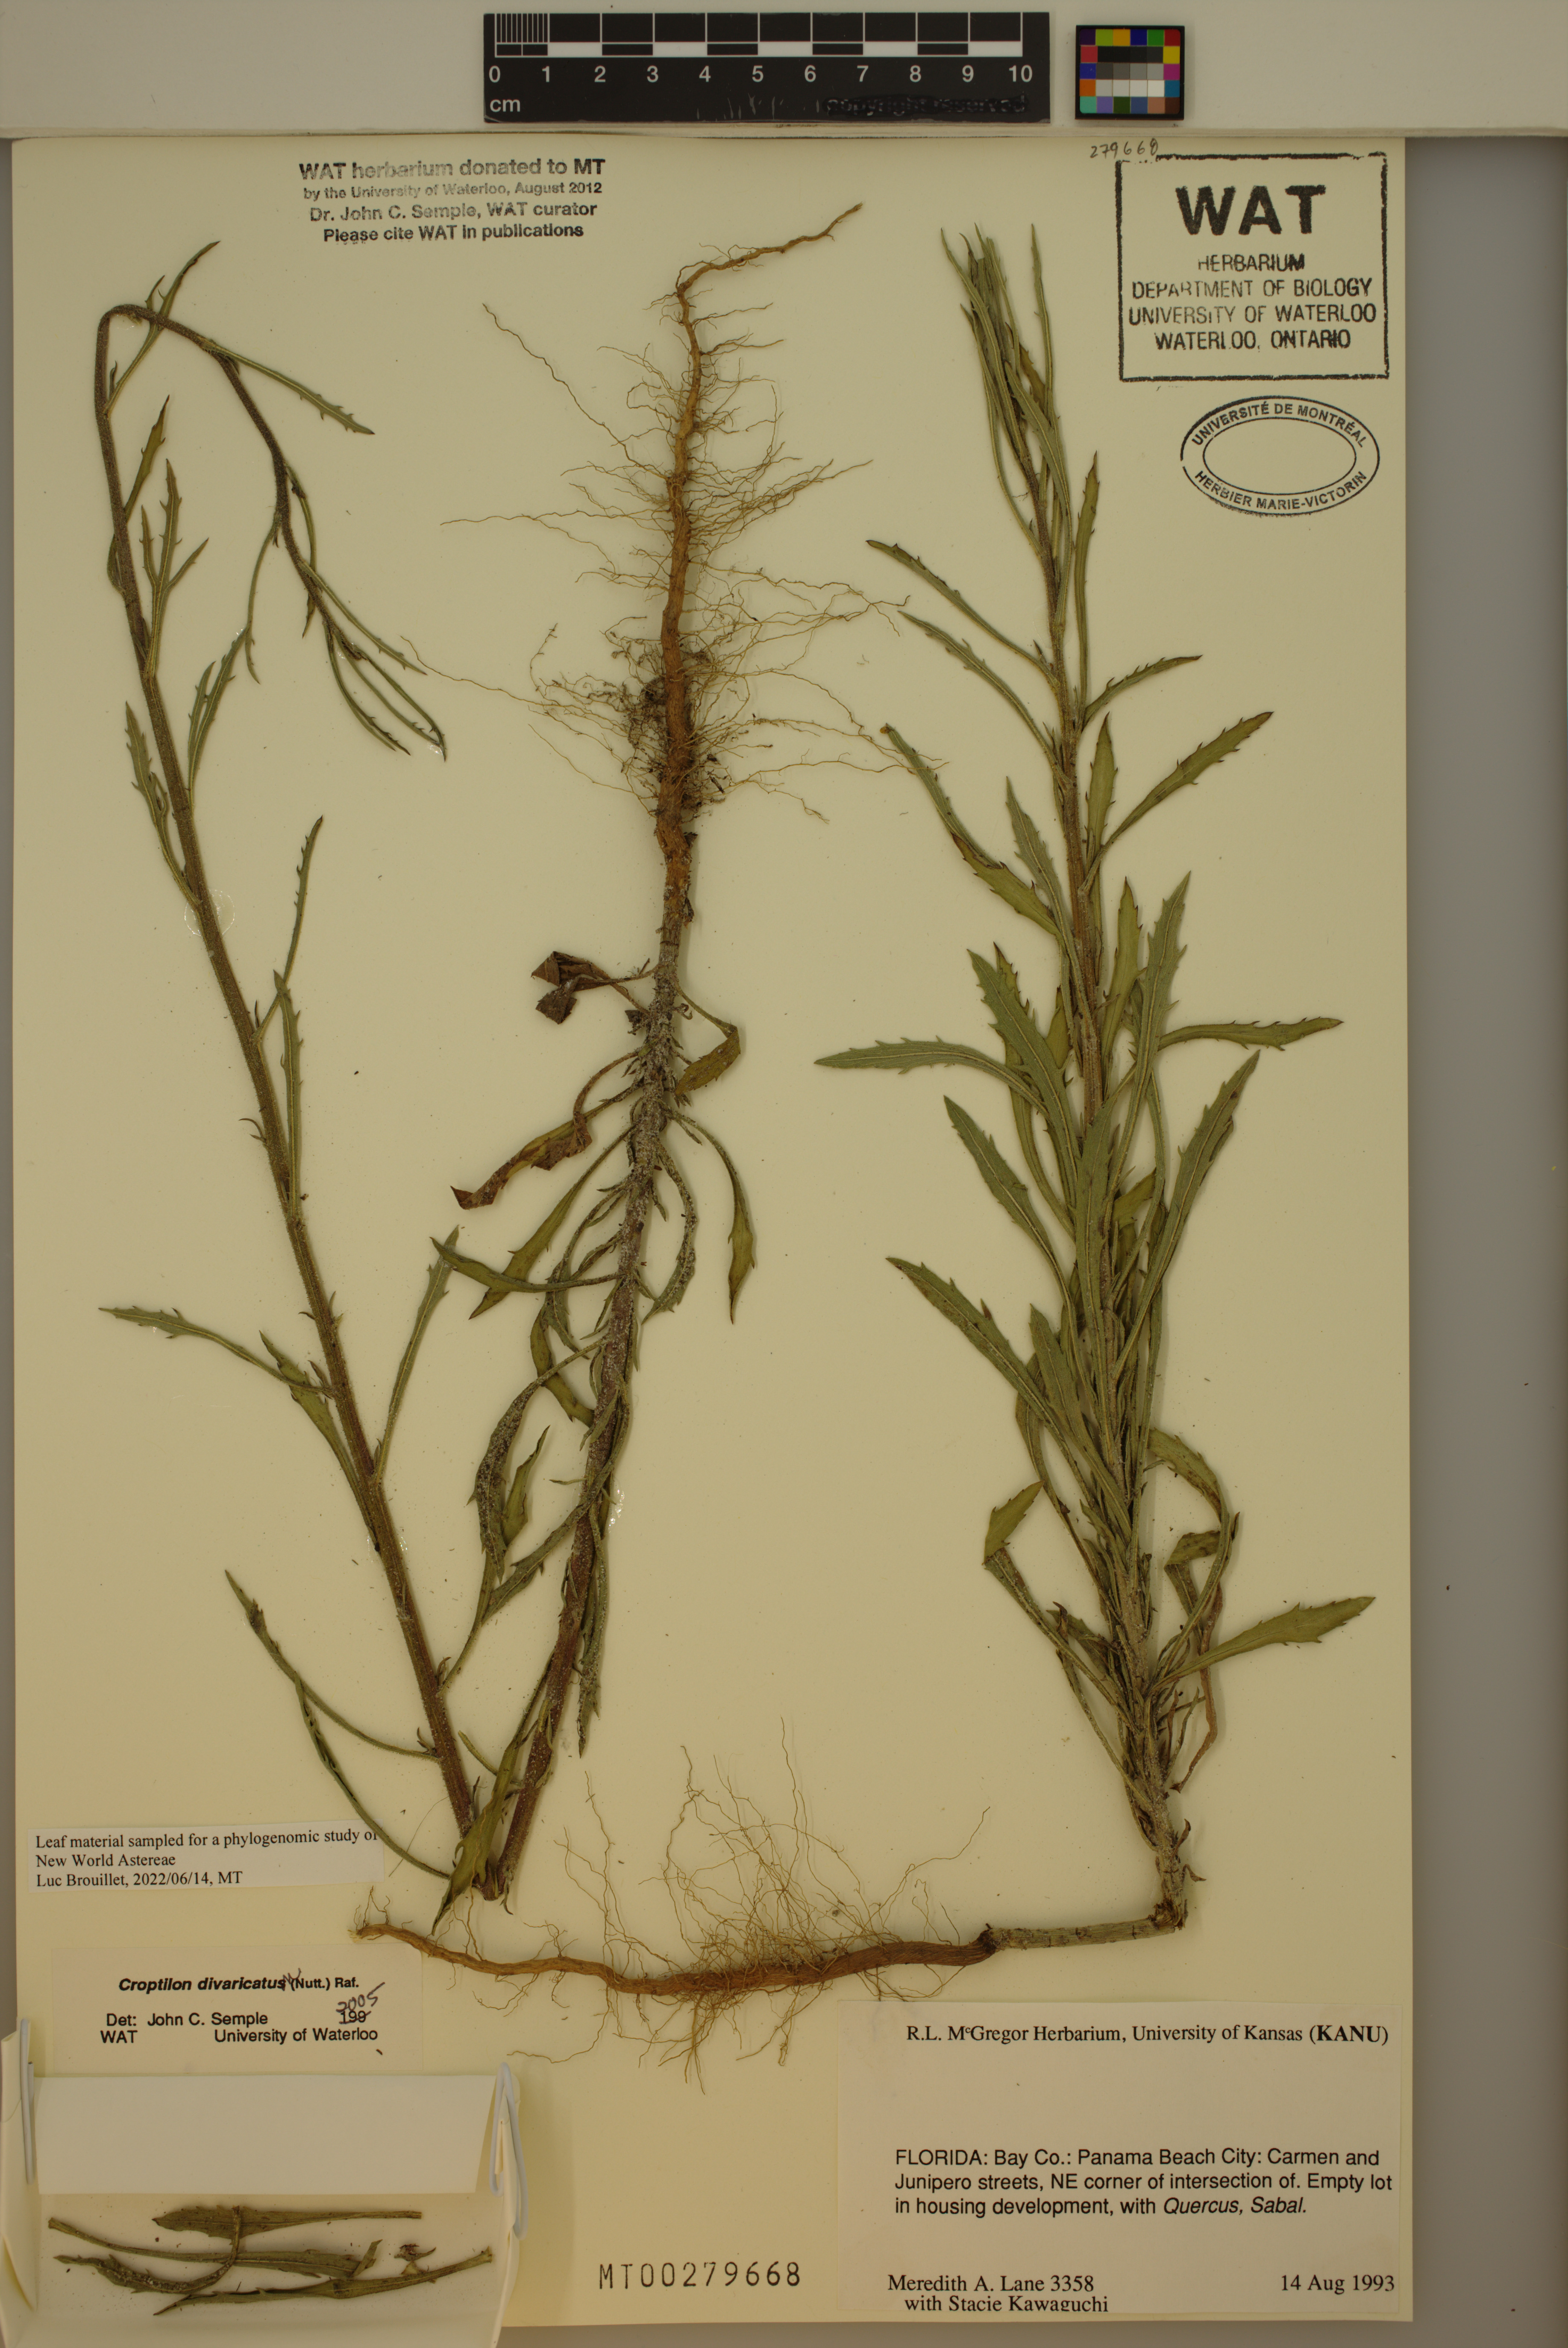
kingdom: Plantae
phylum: Tracheophyta
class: Magnoliopsida
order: Asterales
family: Asteraceae
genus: Croptilon
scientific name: Croptilon divaricatum
